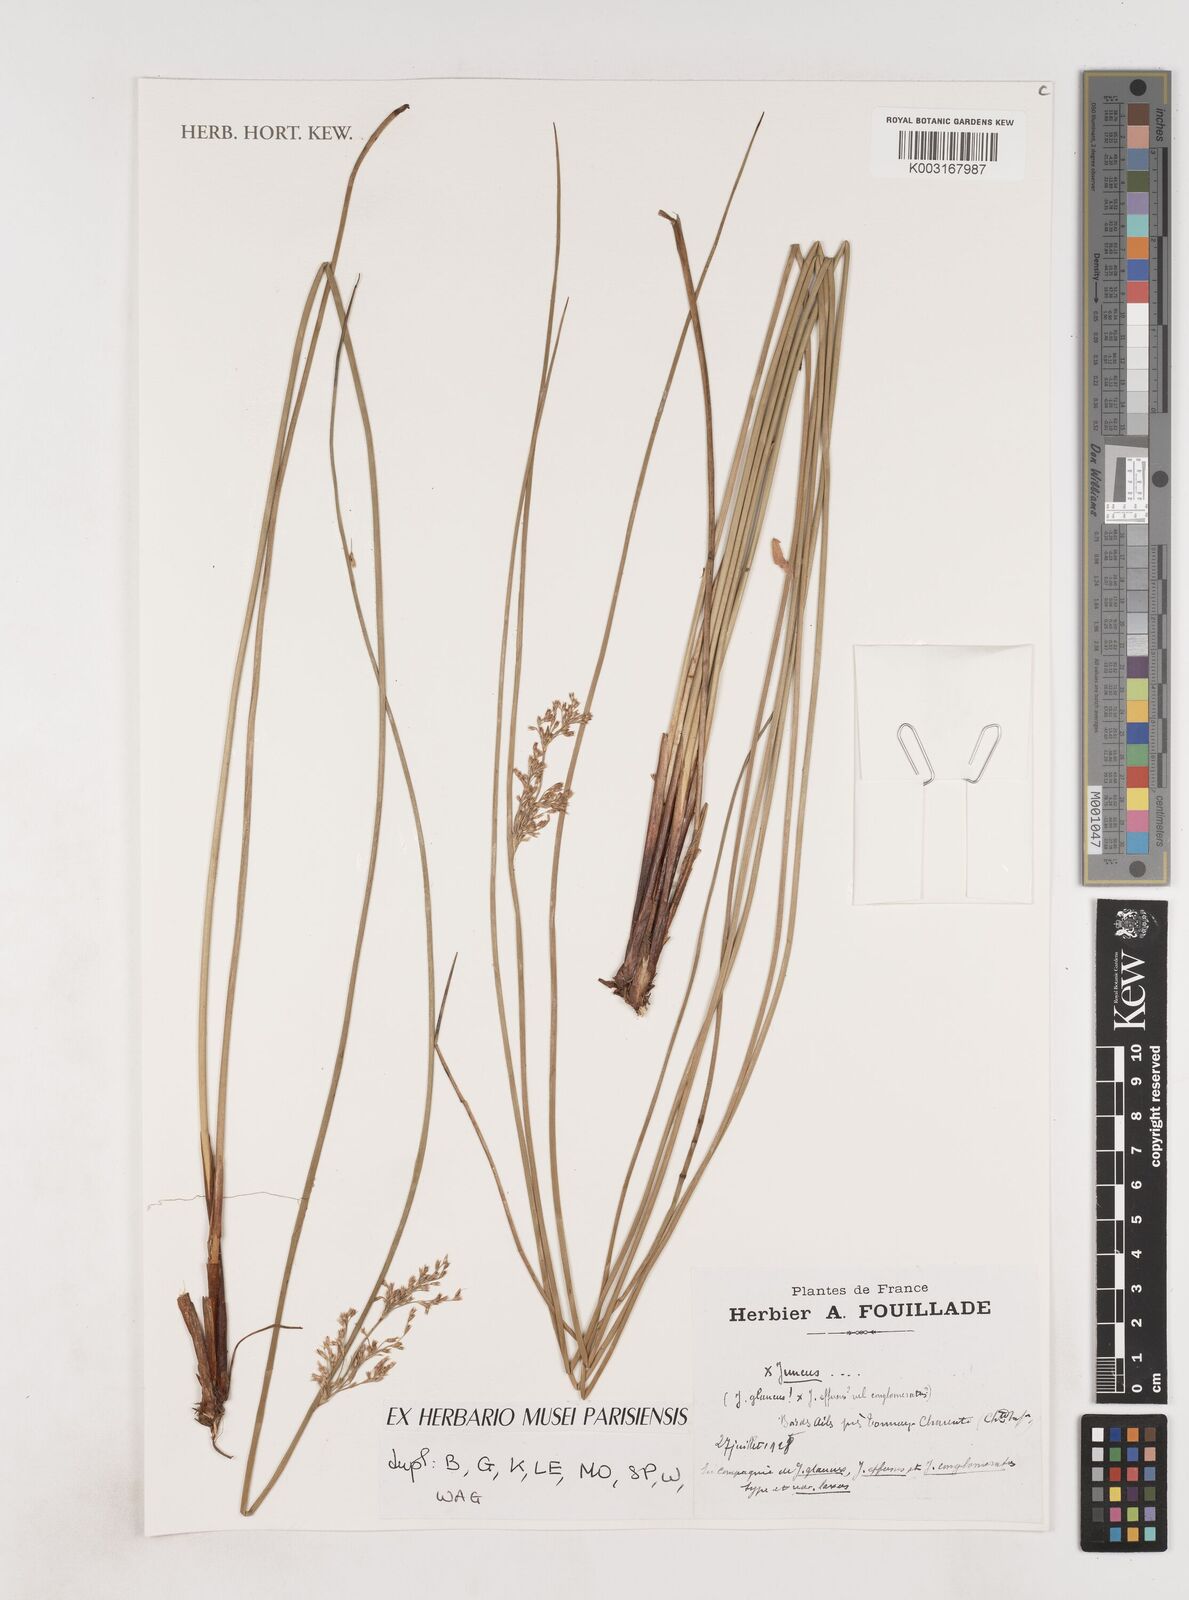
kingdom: Plantae
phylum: Tracheophyta
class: Liliopsida
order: Poales
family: Juncaceae
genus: Juncus
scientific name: Juncus effusus
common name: Soft rush
